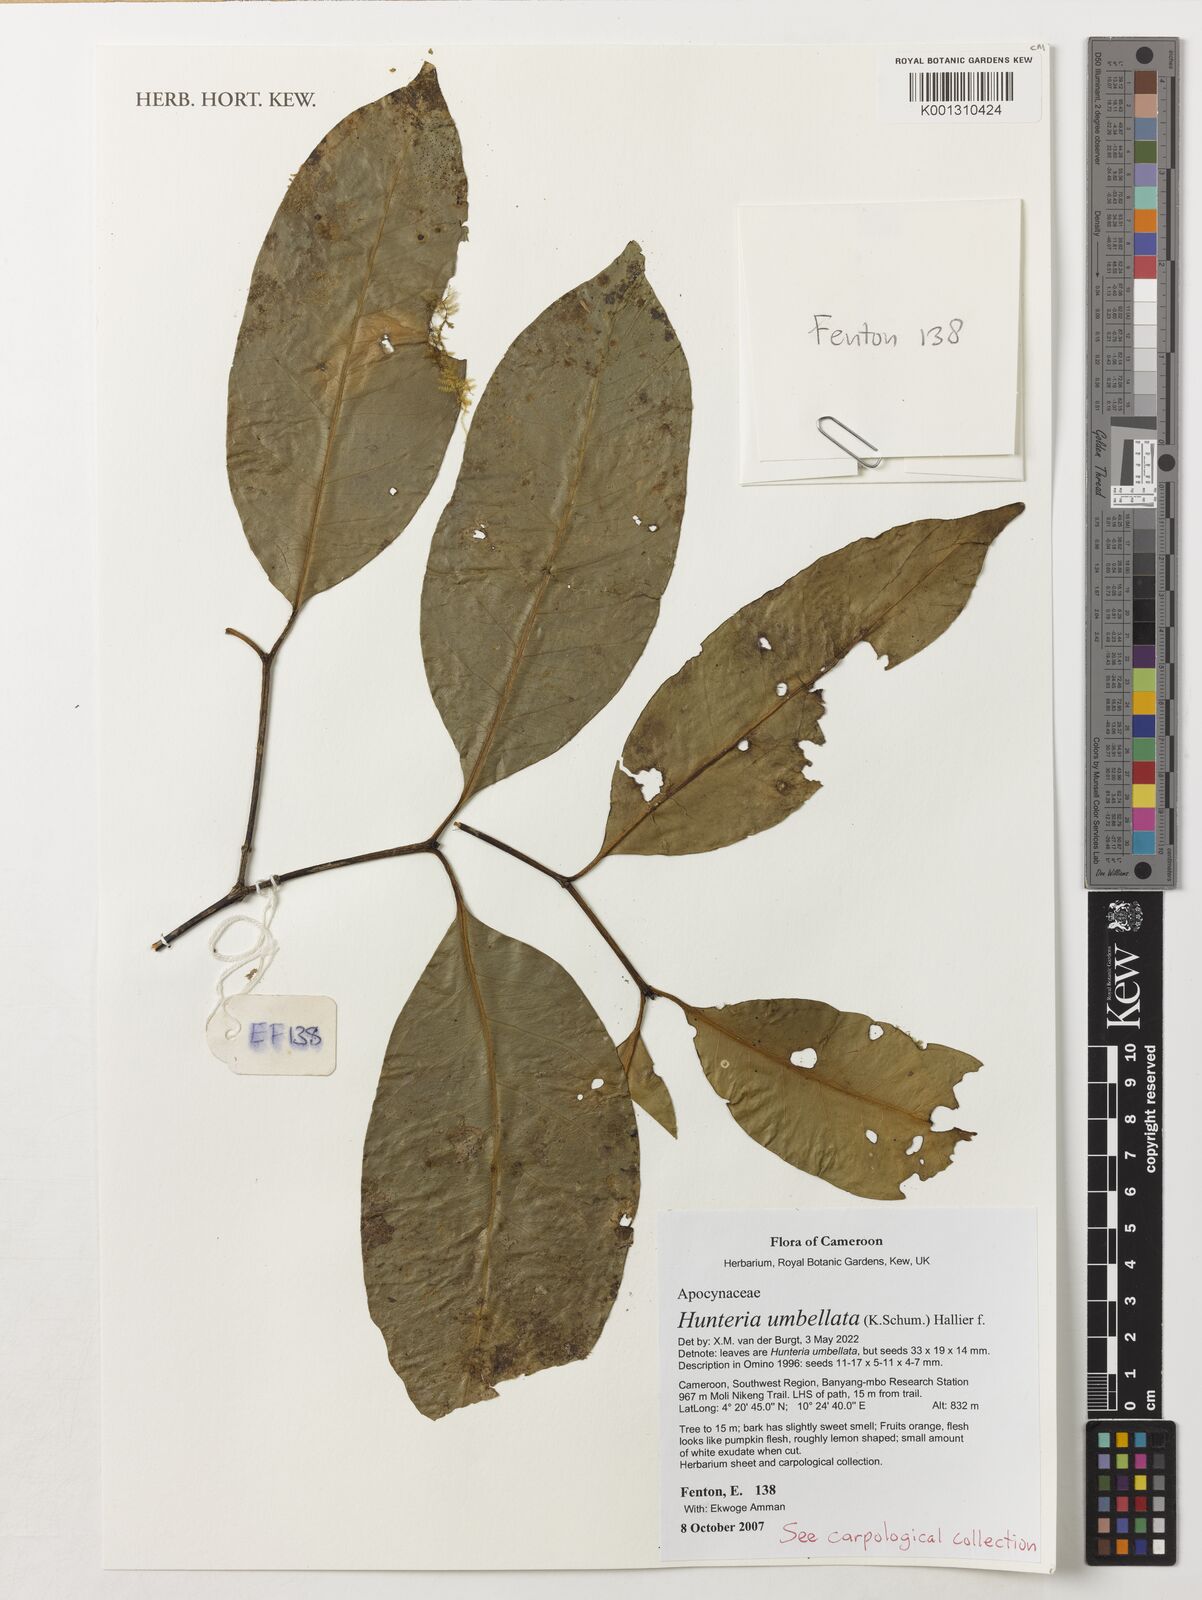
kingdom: Plantae
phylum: Tracheophyta
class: Magnoliopsida
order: Gentianales
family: Apocynaceae
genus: Hunteria
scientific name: Hunteria umbellata
